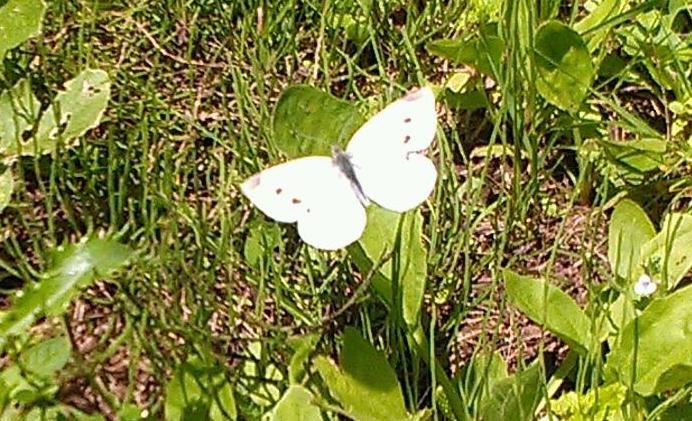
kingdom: Animalia
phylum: Arthropoda
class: Insecta
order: Lepidoptera
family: Pieridae
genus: Pieris
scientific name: Pieris rapae
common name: Cabbage White
